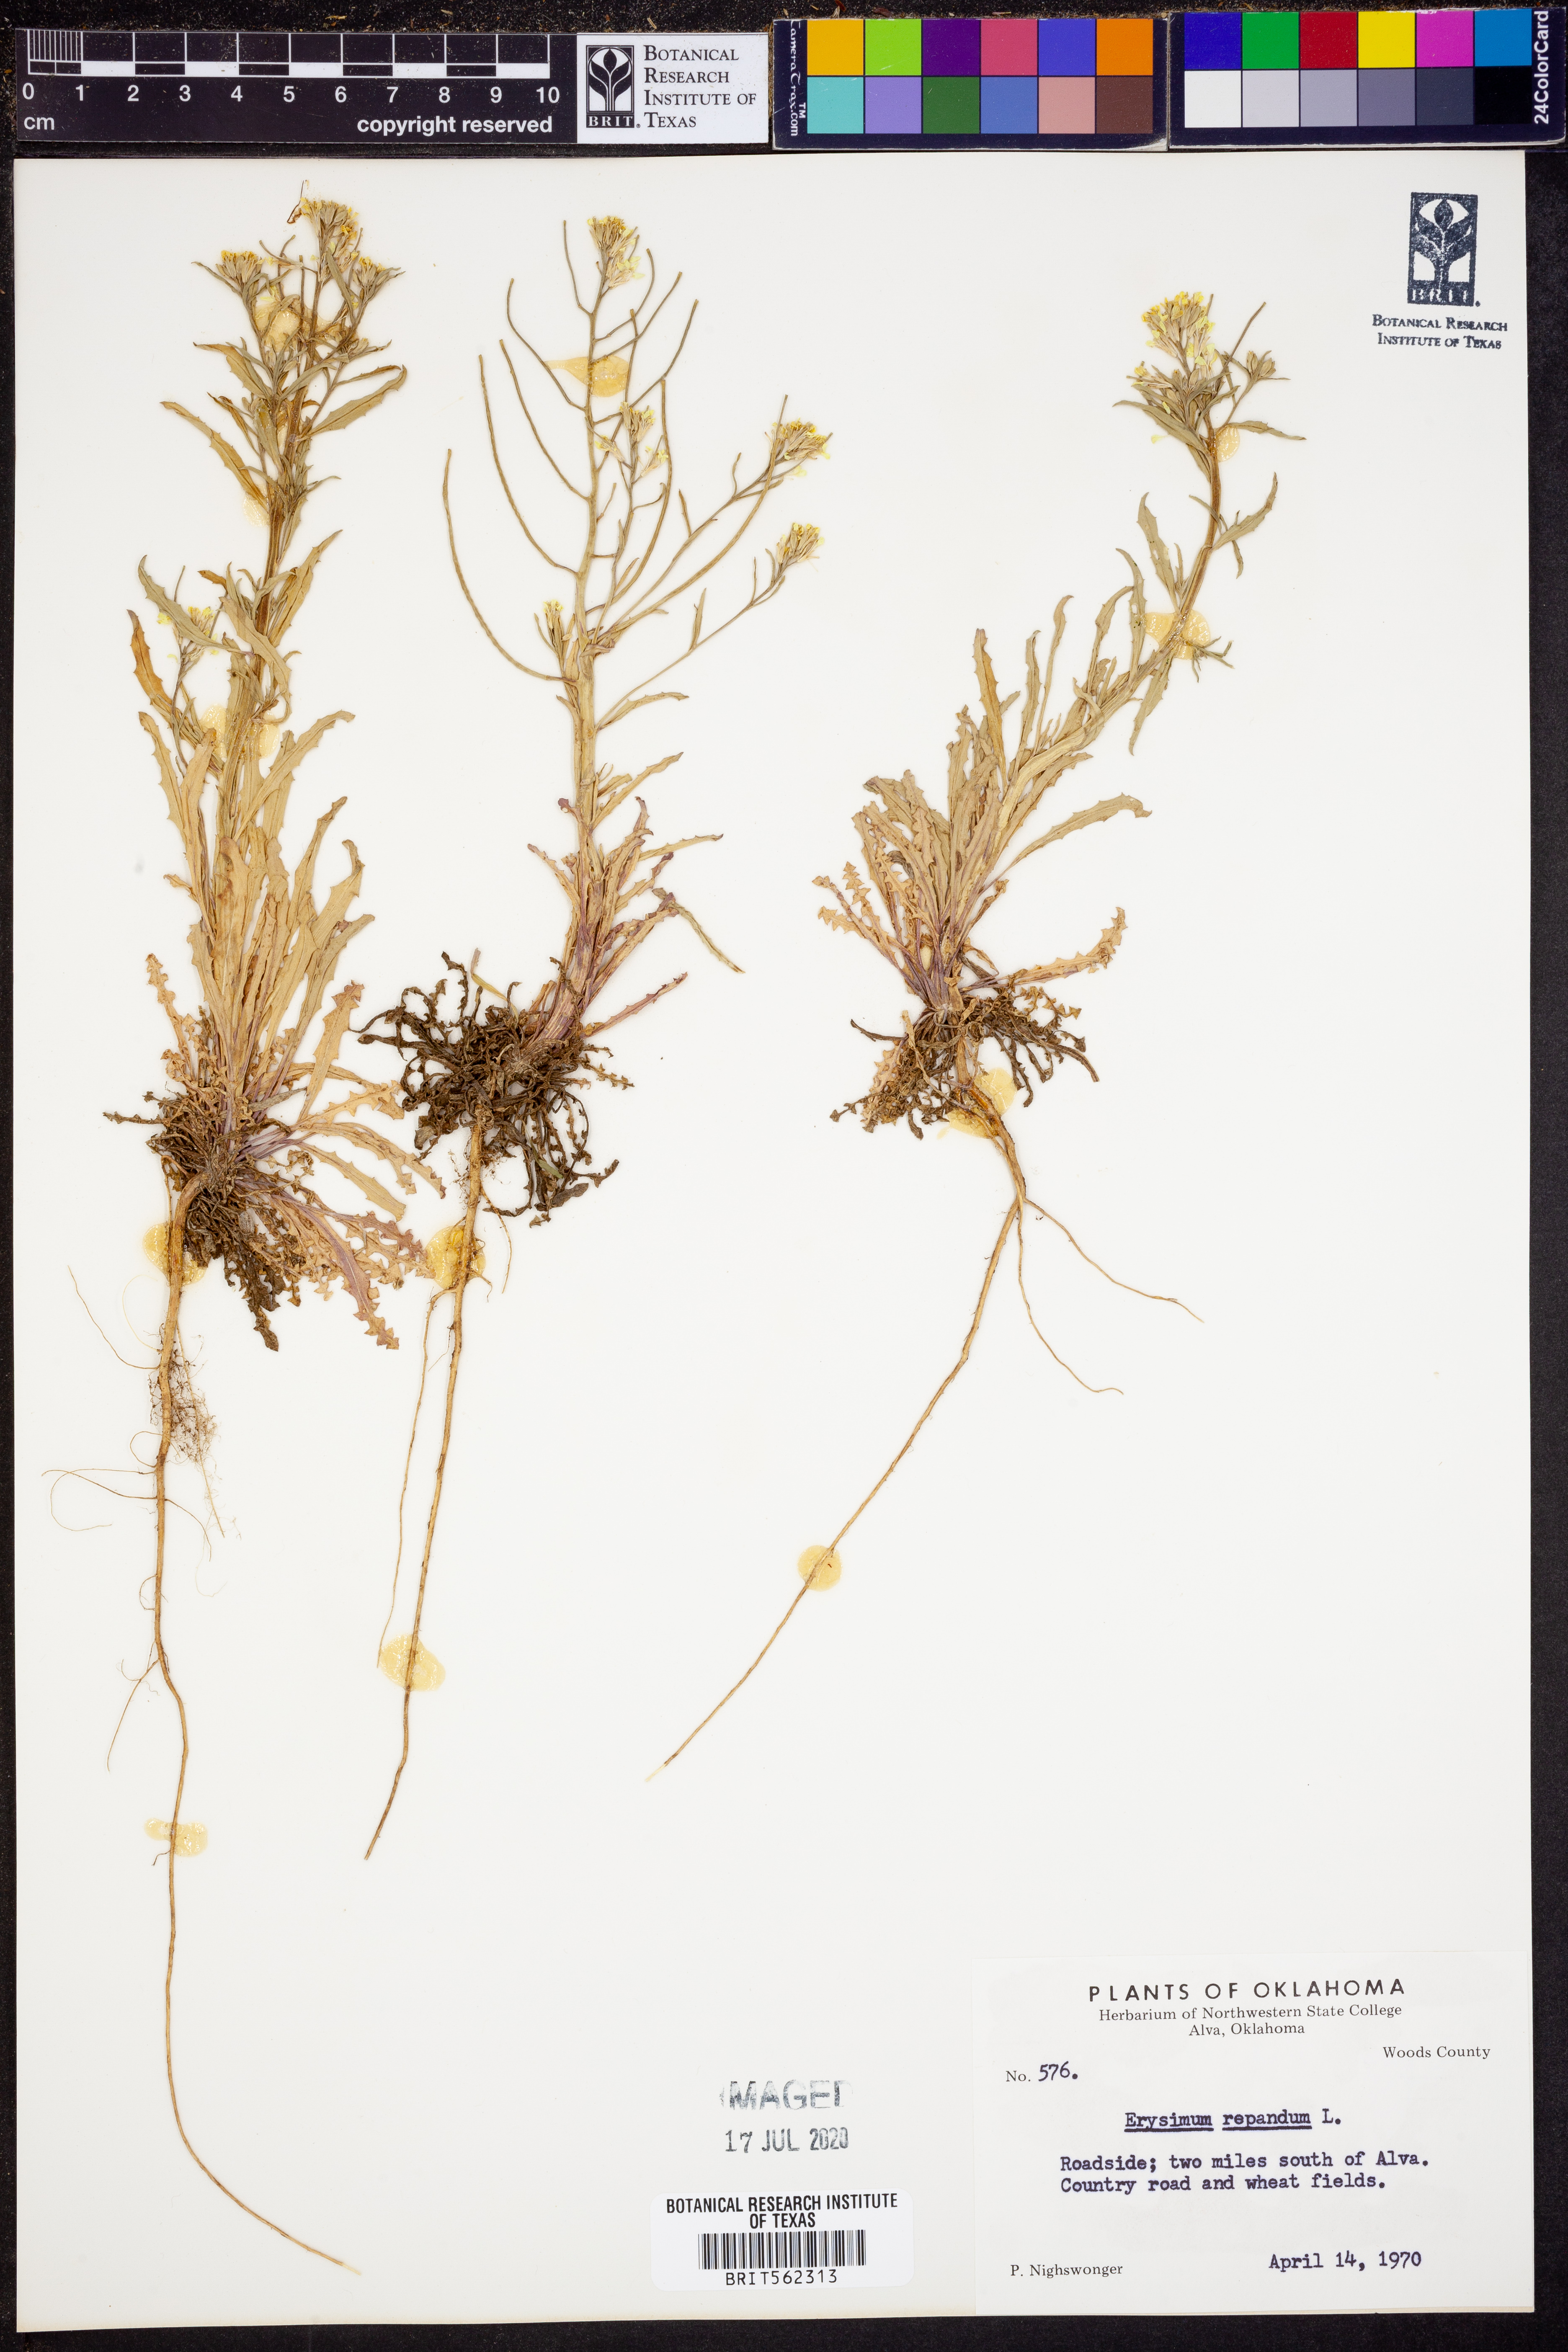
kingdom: Plantae
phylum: Tracheophyta
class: Magnoliopsida
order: Brassicales
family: Brassicaceae
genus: Erysimum
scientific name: Erysimum repandum
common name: Spreading wallflower
